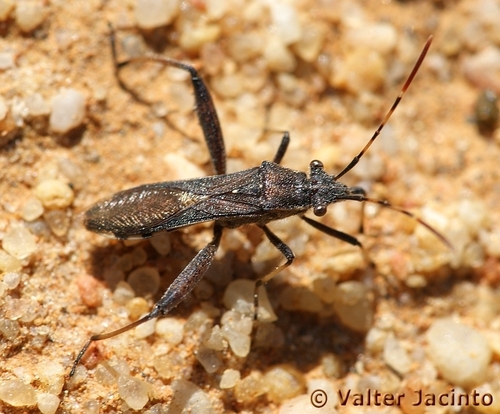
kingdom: Animalia
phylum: Arthropoda
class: Insecta
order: Hemiptera
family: Alydidae
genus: Camptopus
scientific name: Camptopus lateralis
